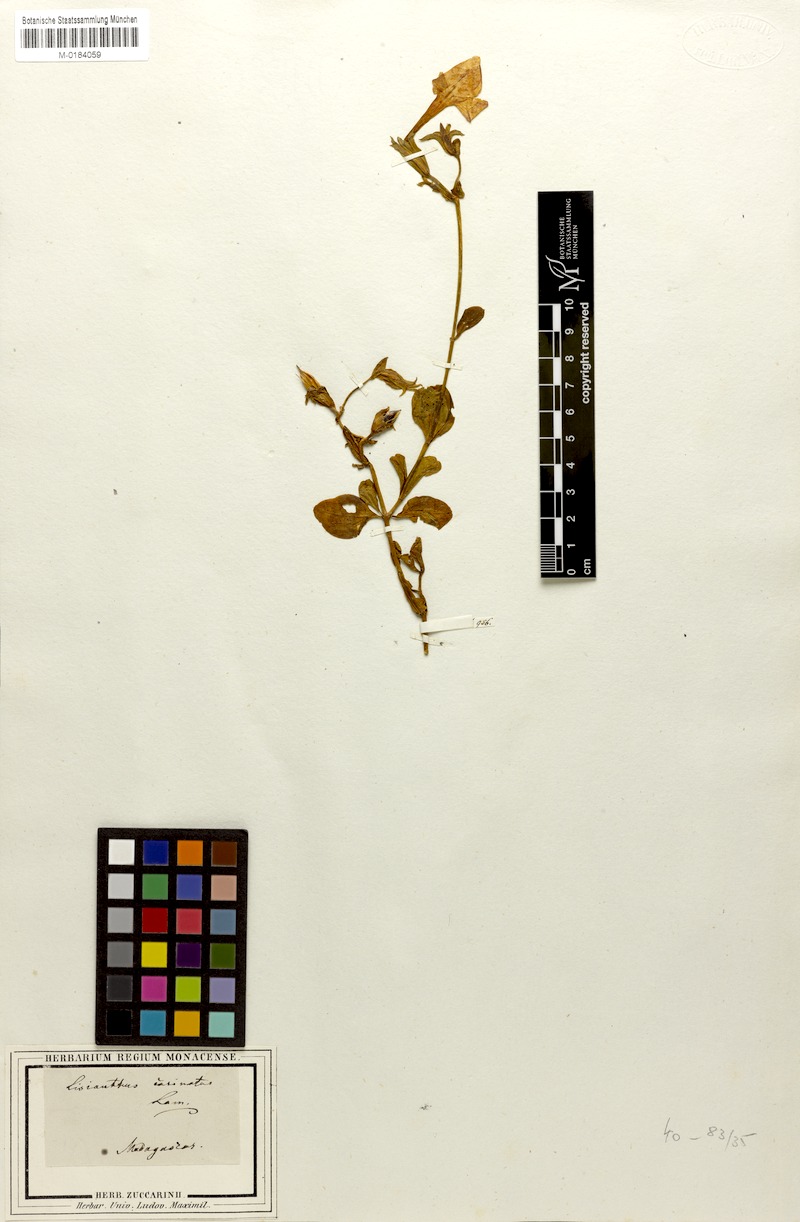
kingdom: Plantae
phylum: Tracheophyta
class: Magnoliopsida
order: Gentianales
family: Gentianaceae
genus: Tachiadenus
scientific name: Tachiadenus carinatus
